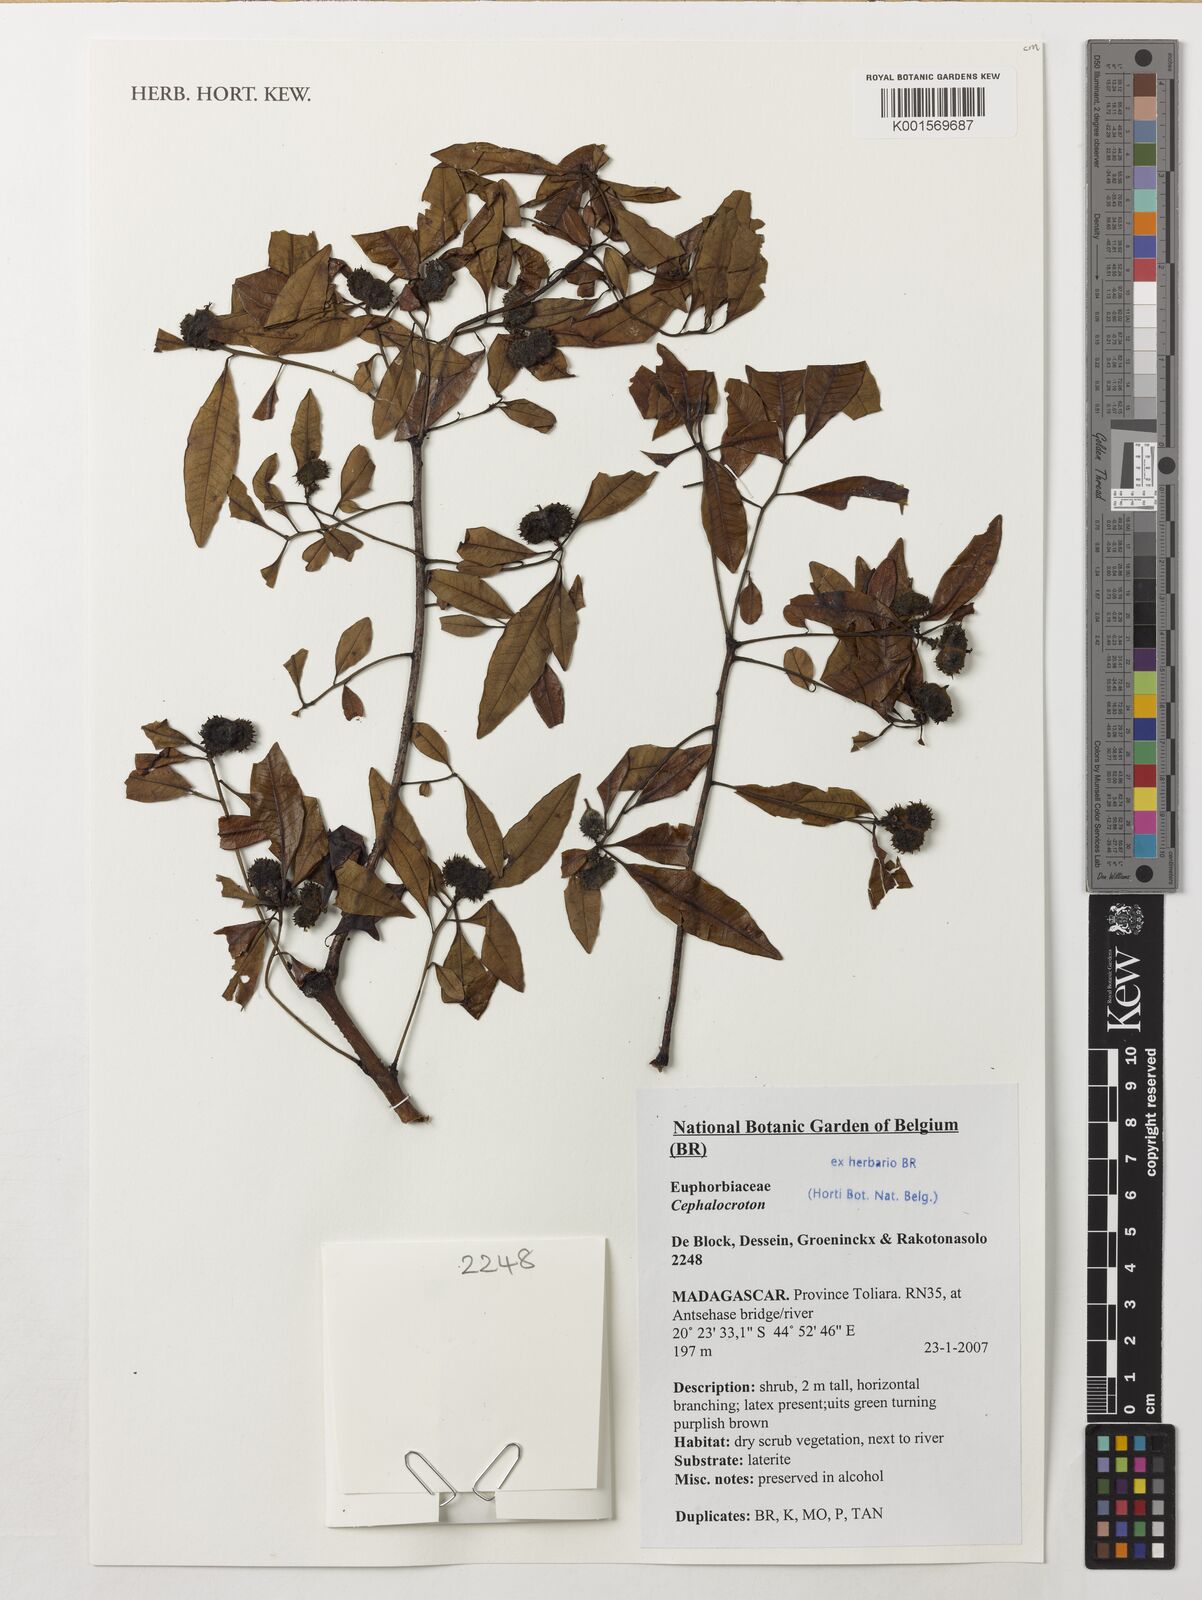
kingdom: Plantae
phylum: Tracheophyta
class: Magnoliopsida
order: Malpighiales
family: Euphorbiaceae
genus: Cephalocroton
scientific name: Cephalocroton
